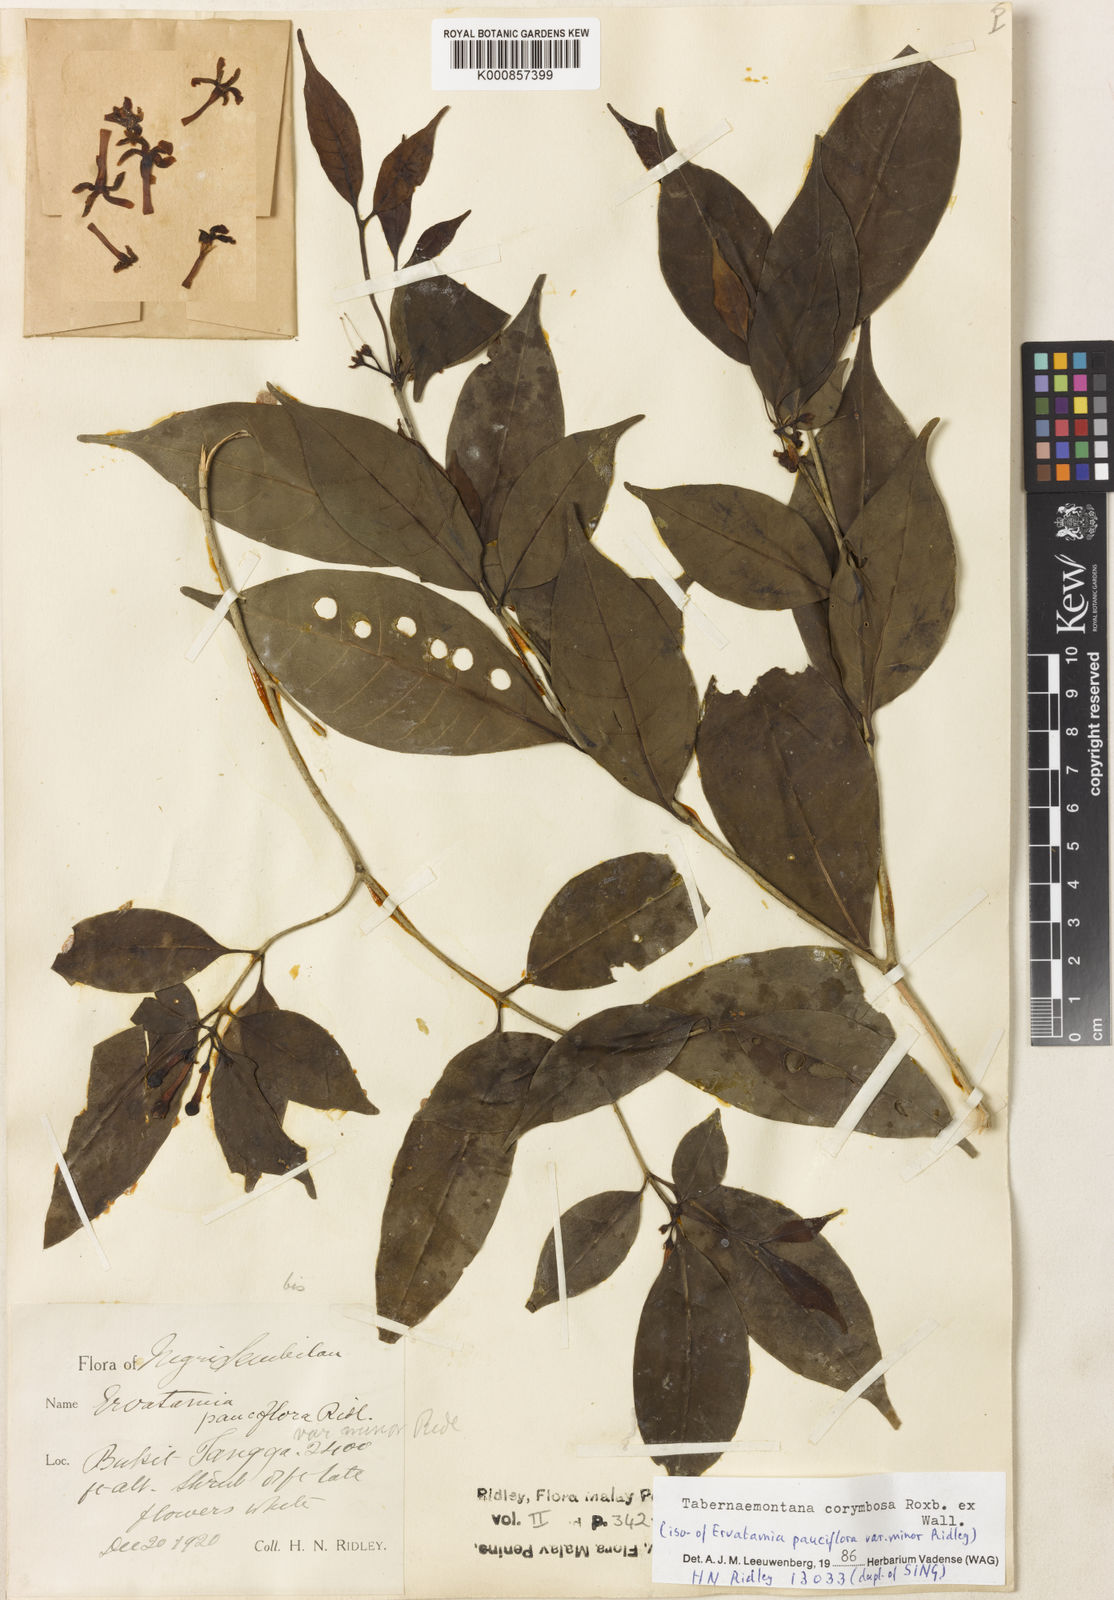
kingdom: Plantae
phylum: Tracheophyta
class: Magnoliopsida
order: Gentianales
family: Apocynaceae
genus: Tabernaemontana
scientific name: Tabernaemontana corymbosa
